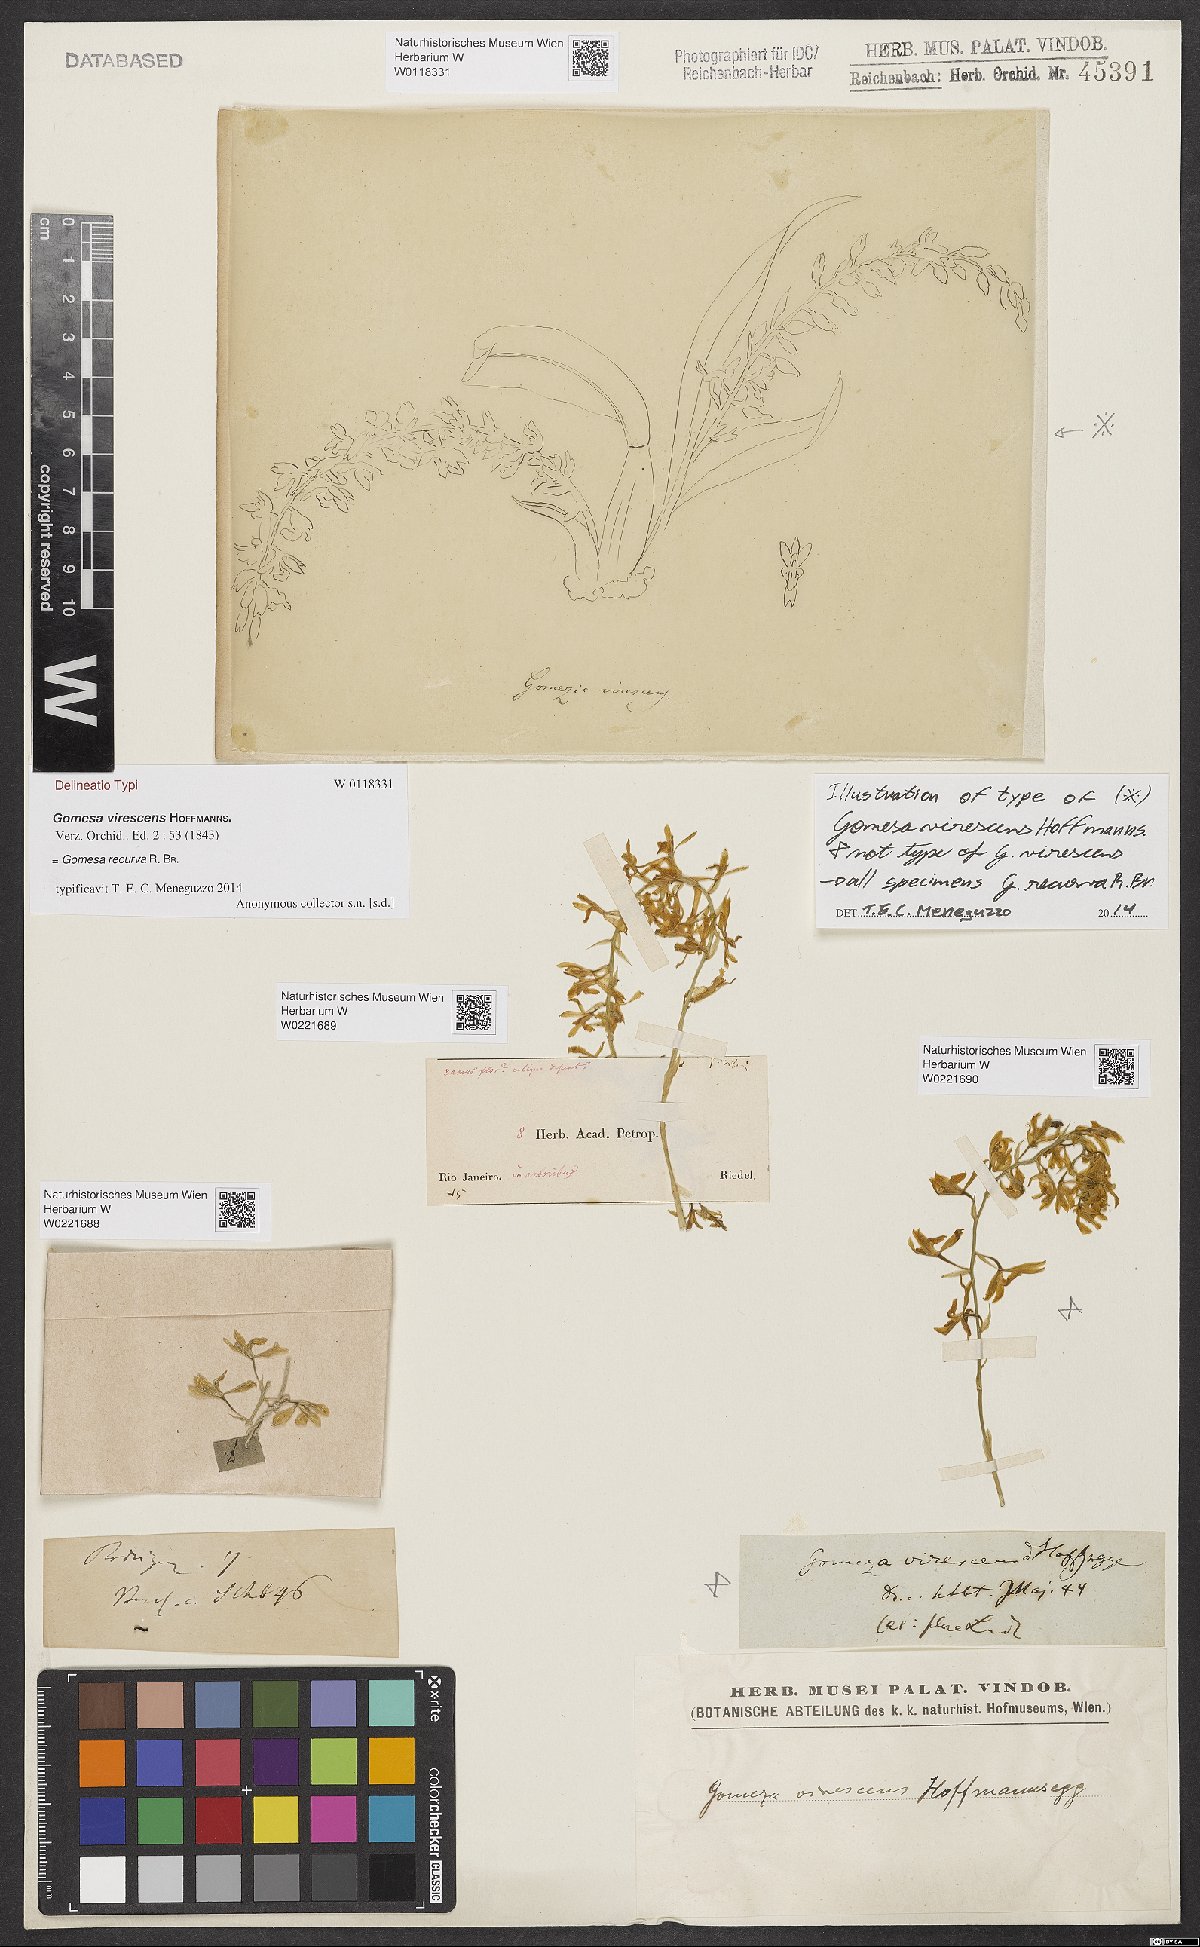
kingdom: Plantae
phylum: Tracheophyta
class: Liliopsida
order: Asparagales
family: Orchidaceae
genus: Gomesa
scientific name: Gomesa virescens
